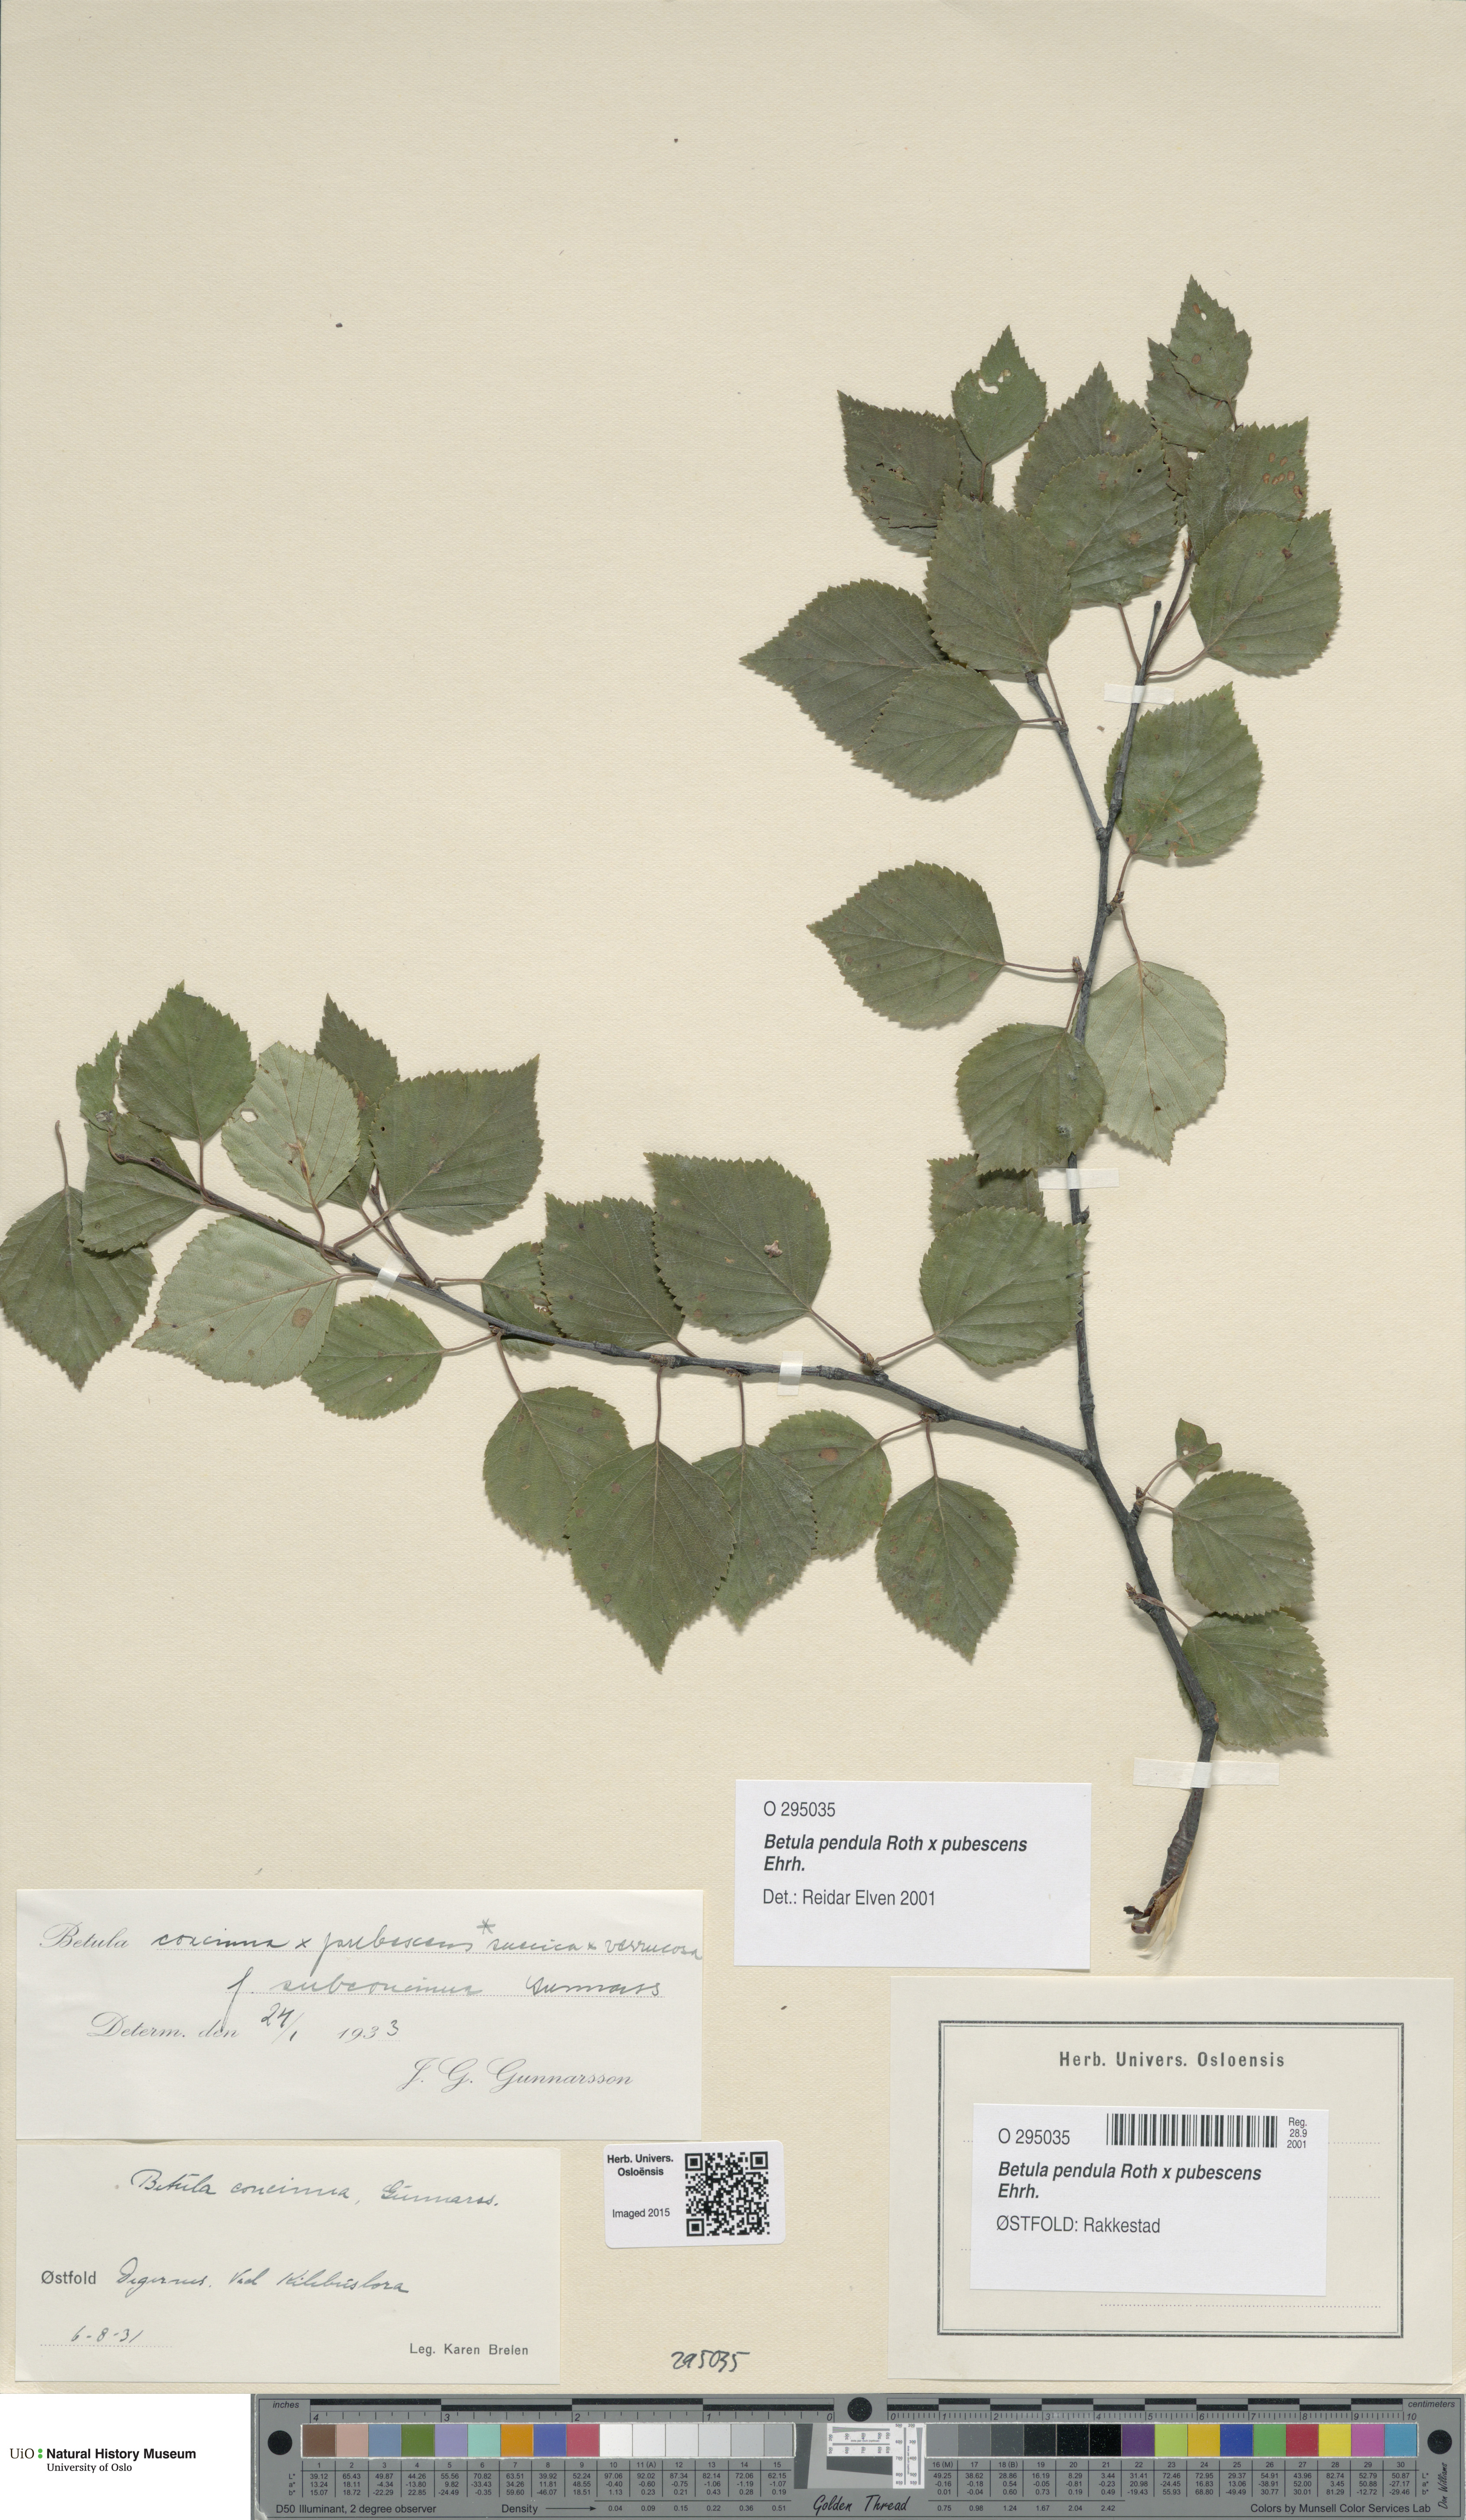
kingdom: Plantae
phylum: Tracheophyta
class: Magnoliopsida
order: Fagales
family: Betulaceae
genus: Betula
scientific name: Betula
